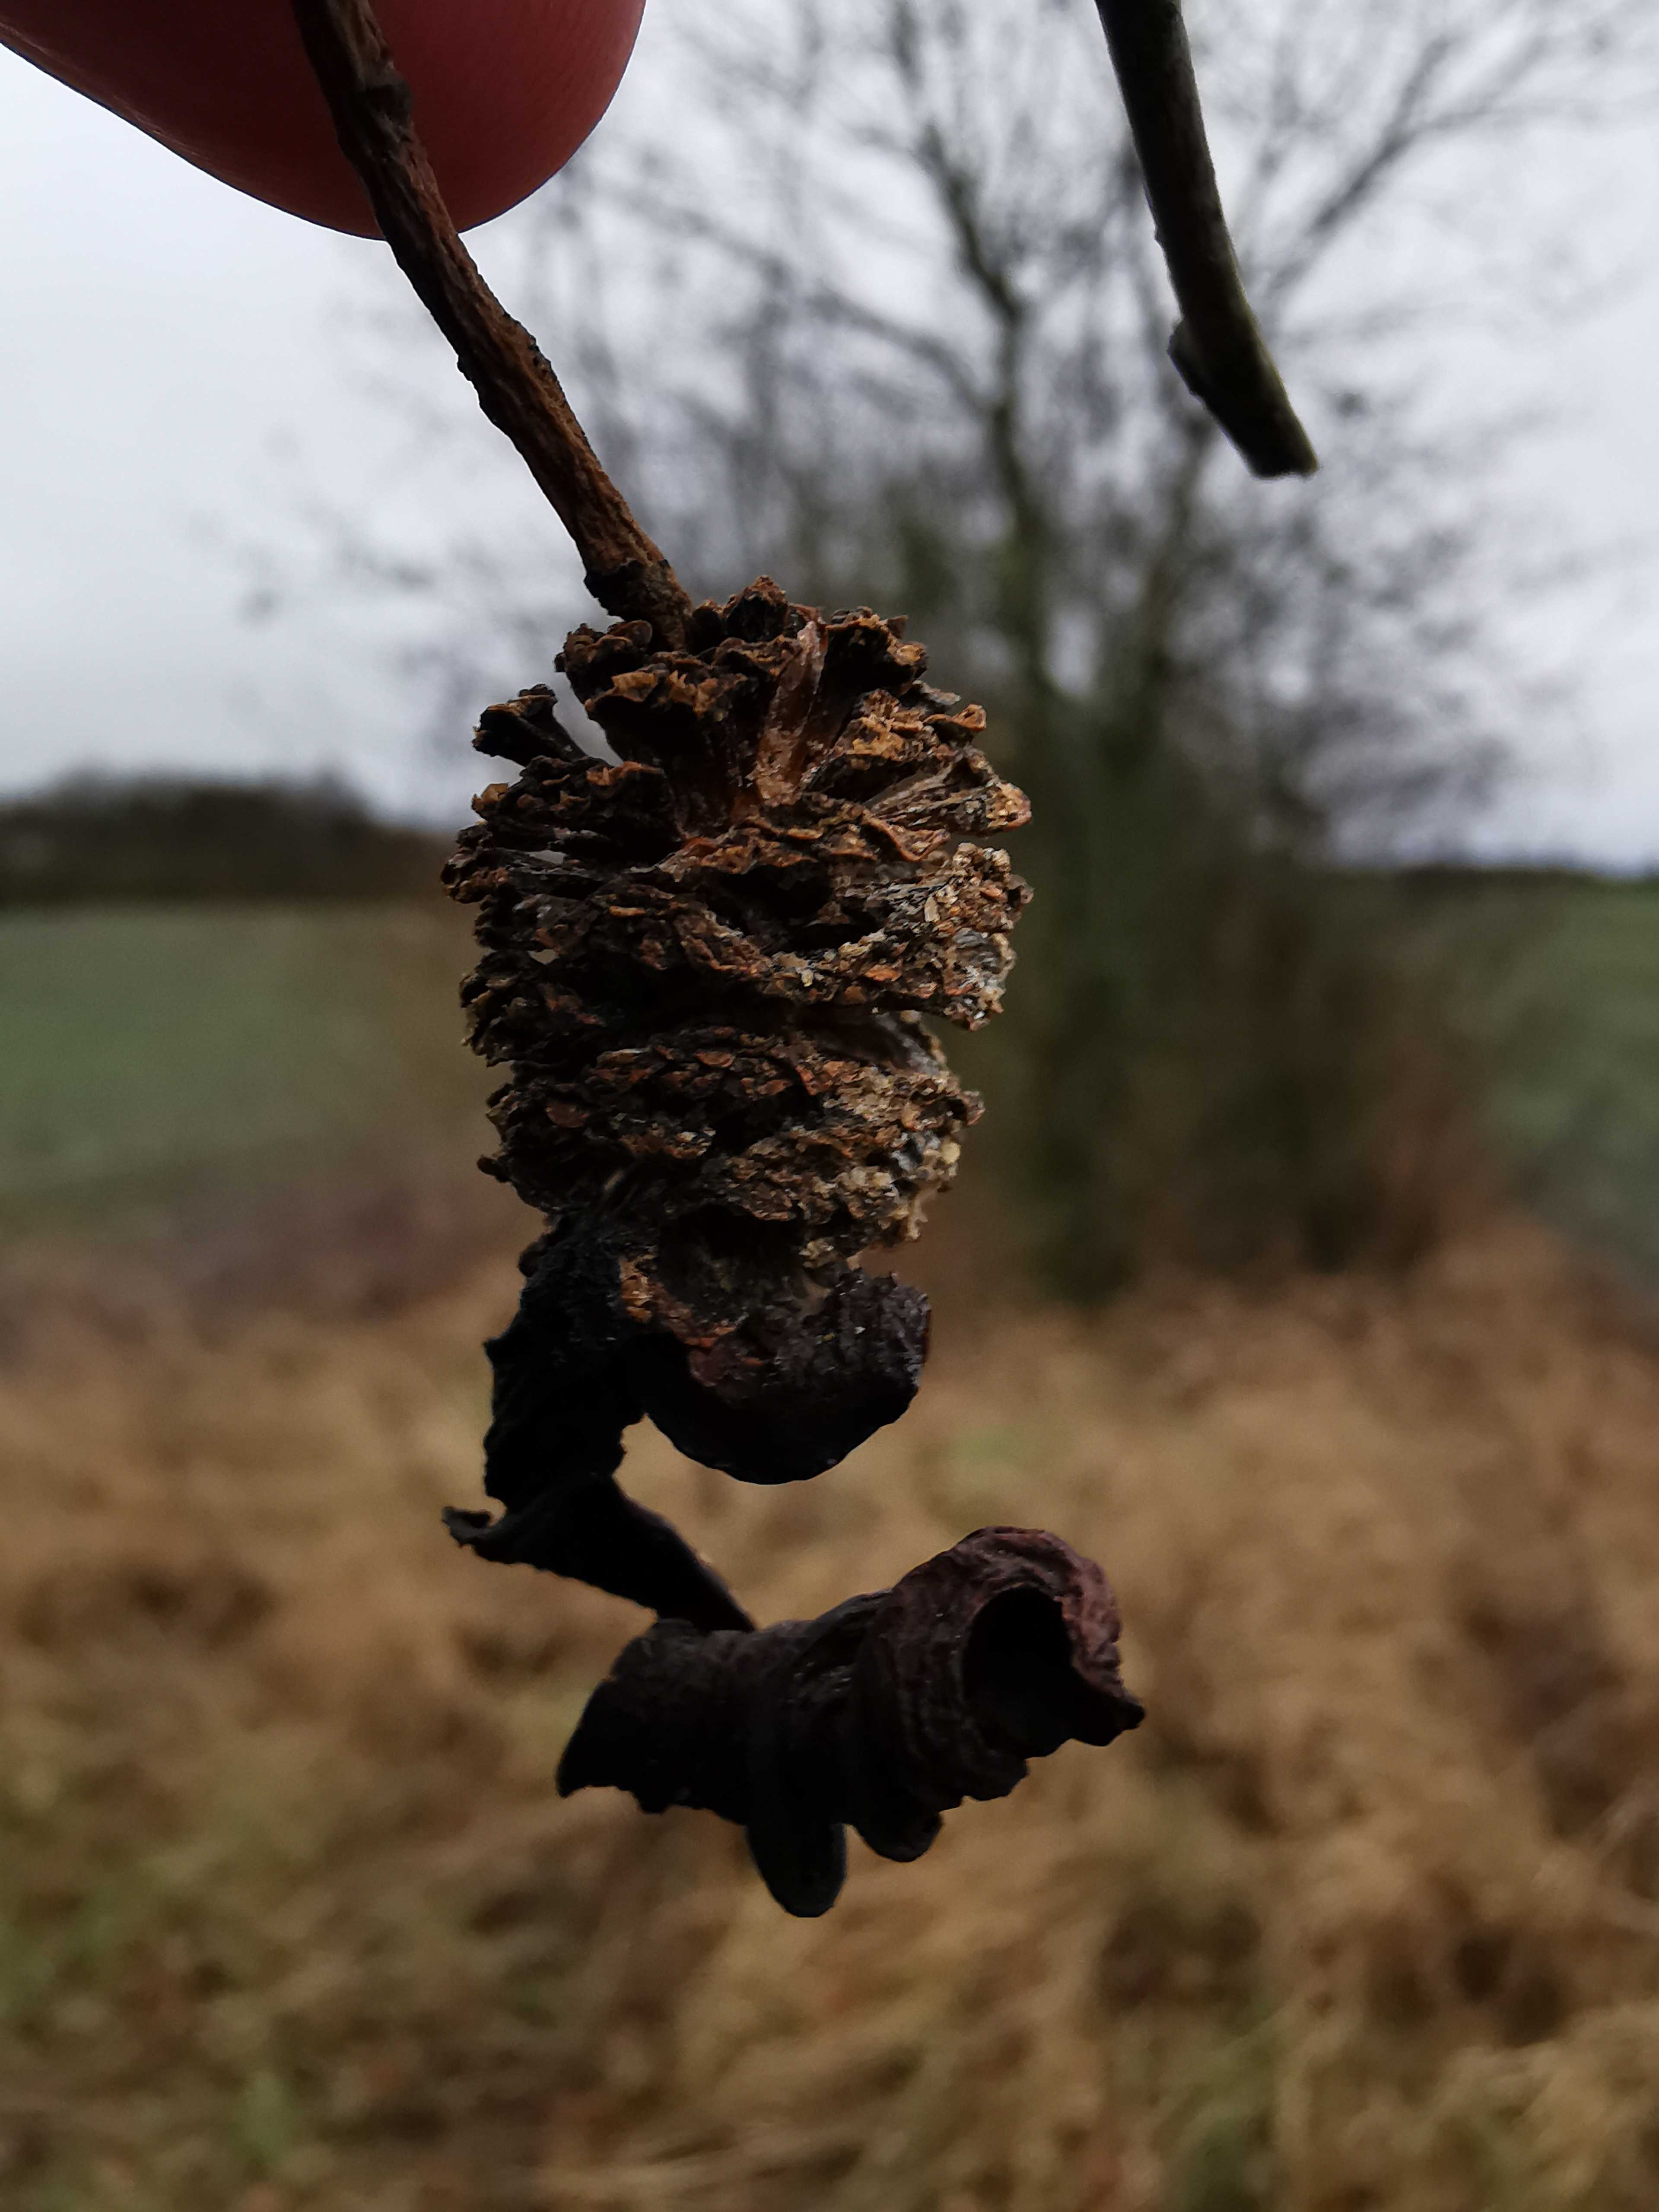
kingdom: Fungi
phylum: Ascomycota
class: Taphrinomycetes
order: Taphrinales
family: Taphrinaceae
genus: Taphrina
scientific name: Taphrina alni
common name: Alder tongue
